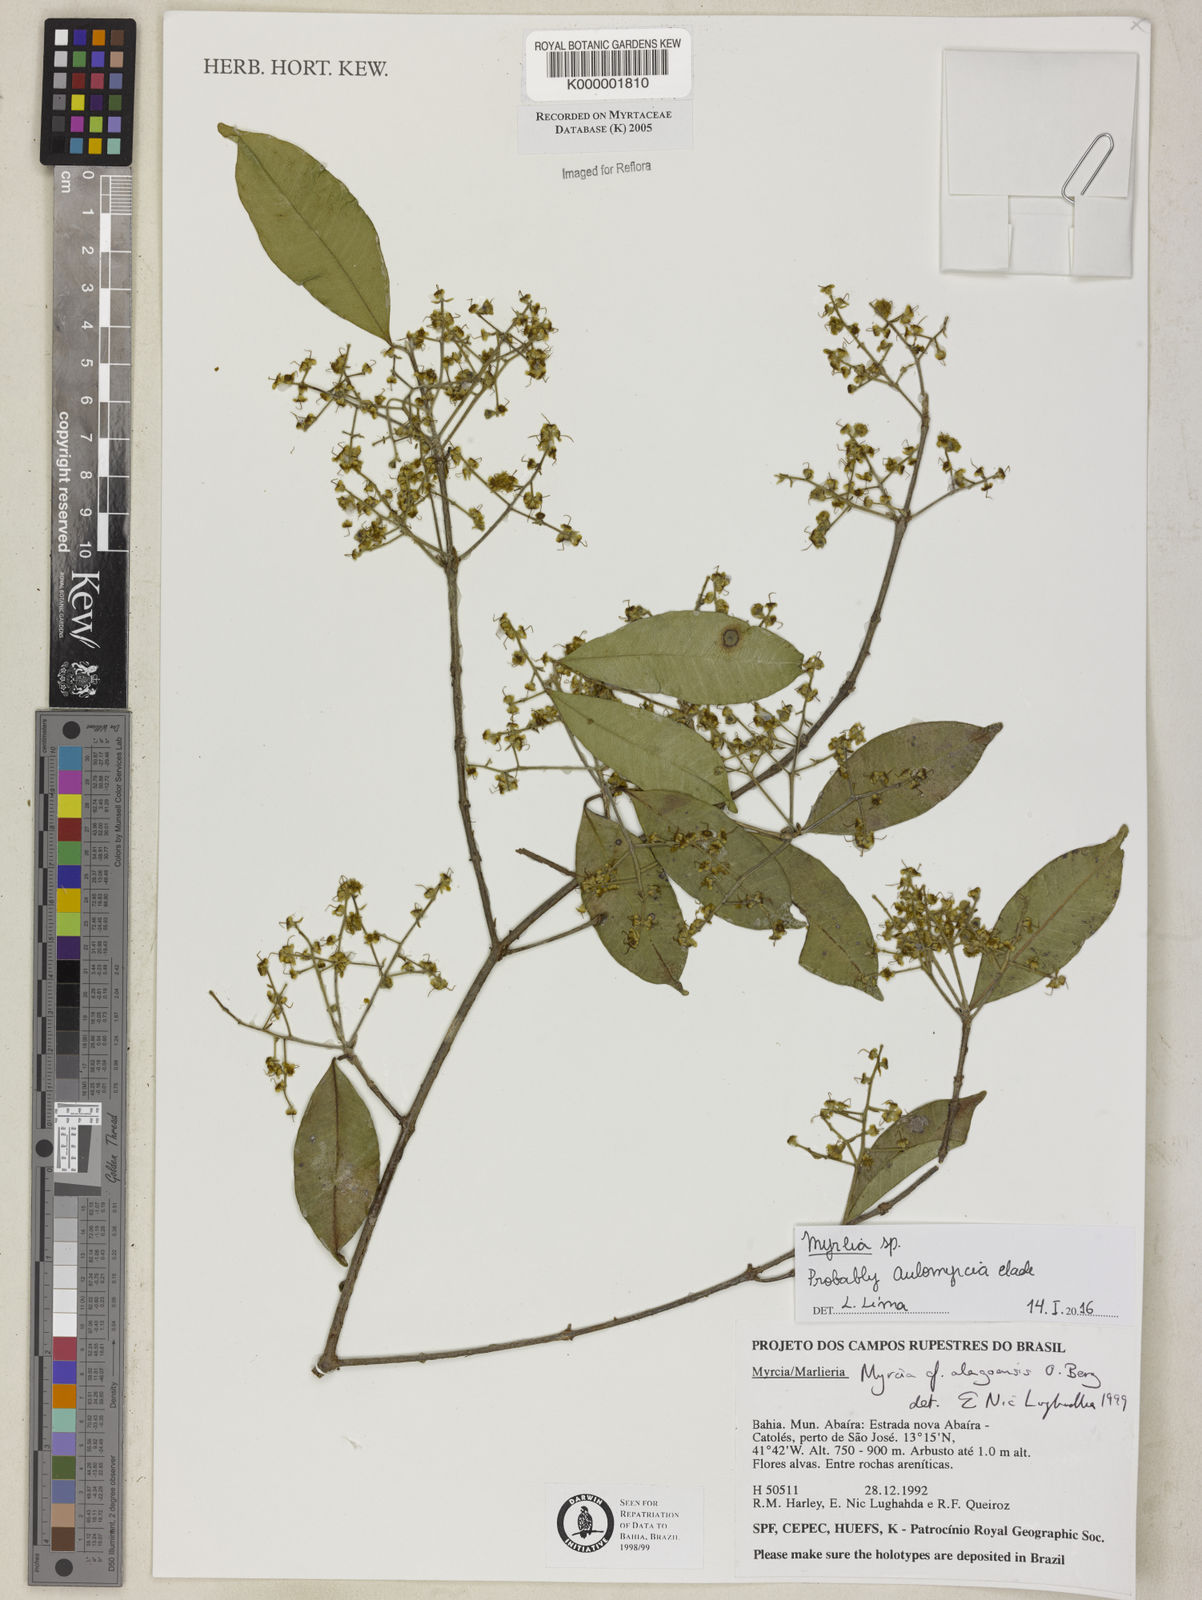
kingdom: Plantae
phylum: Tracheophyta
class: Magnoliopsida
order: Myrtales
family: Myrtaceae
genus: Myrcia
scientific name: Myrcia splendens
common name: Surinam cherry
